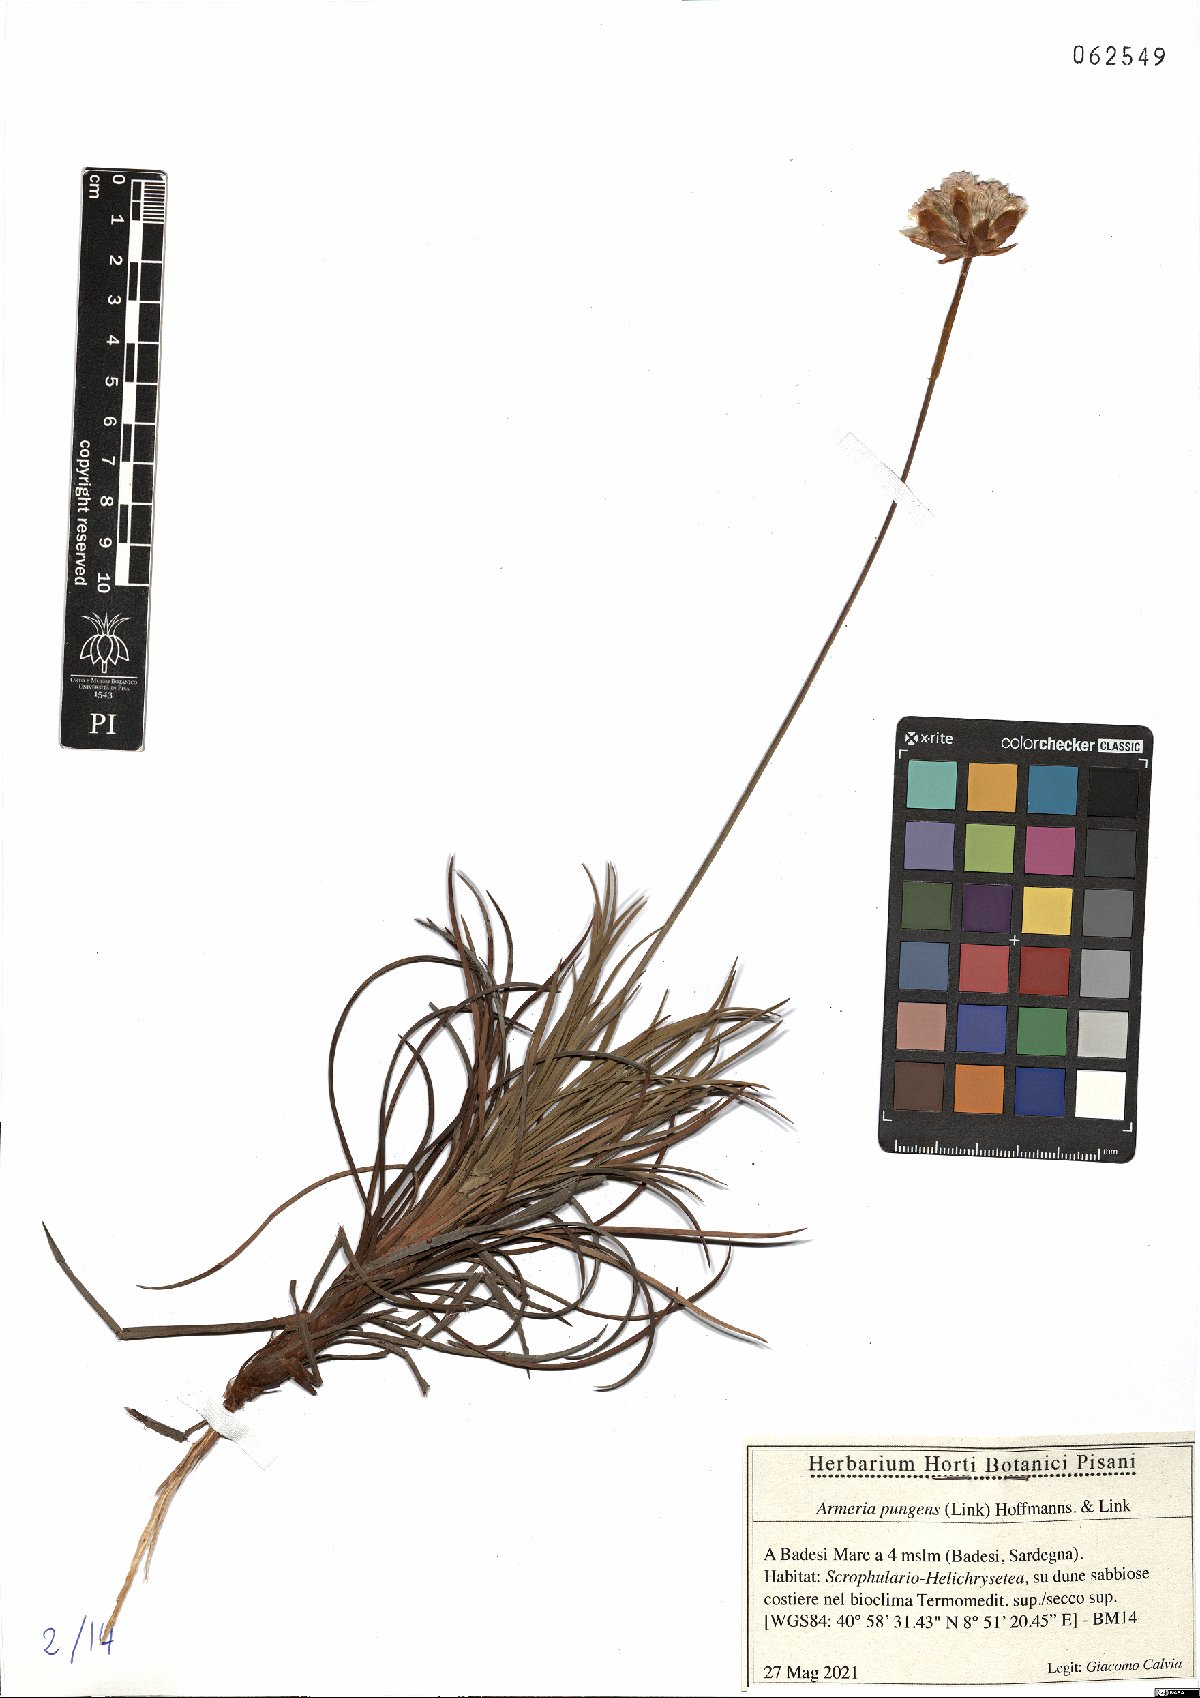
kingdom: Plantae
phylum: Tracheophyta
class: Magnoliopsida
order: Caryophyllales
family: Plumbaginaceae
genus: Armeria
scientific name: Armeria pungens
